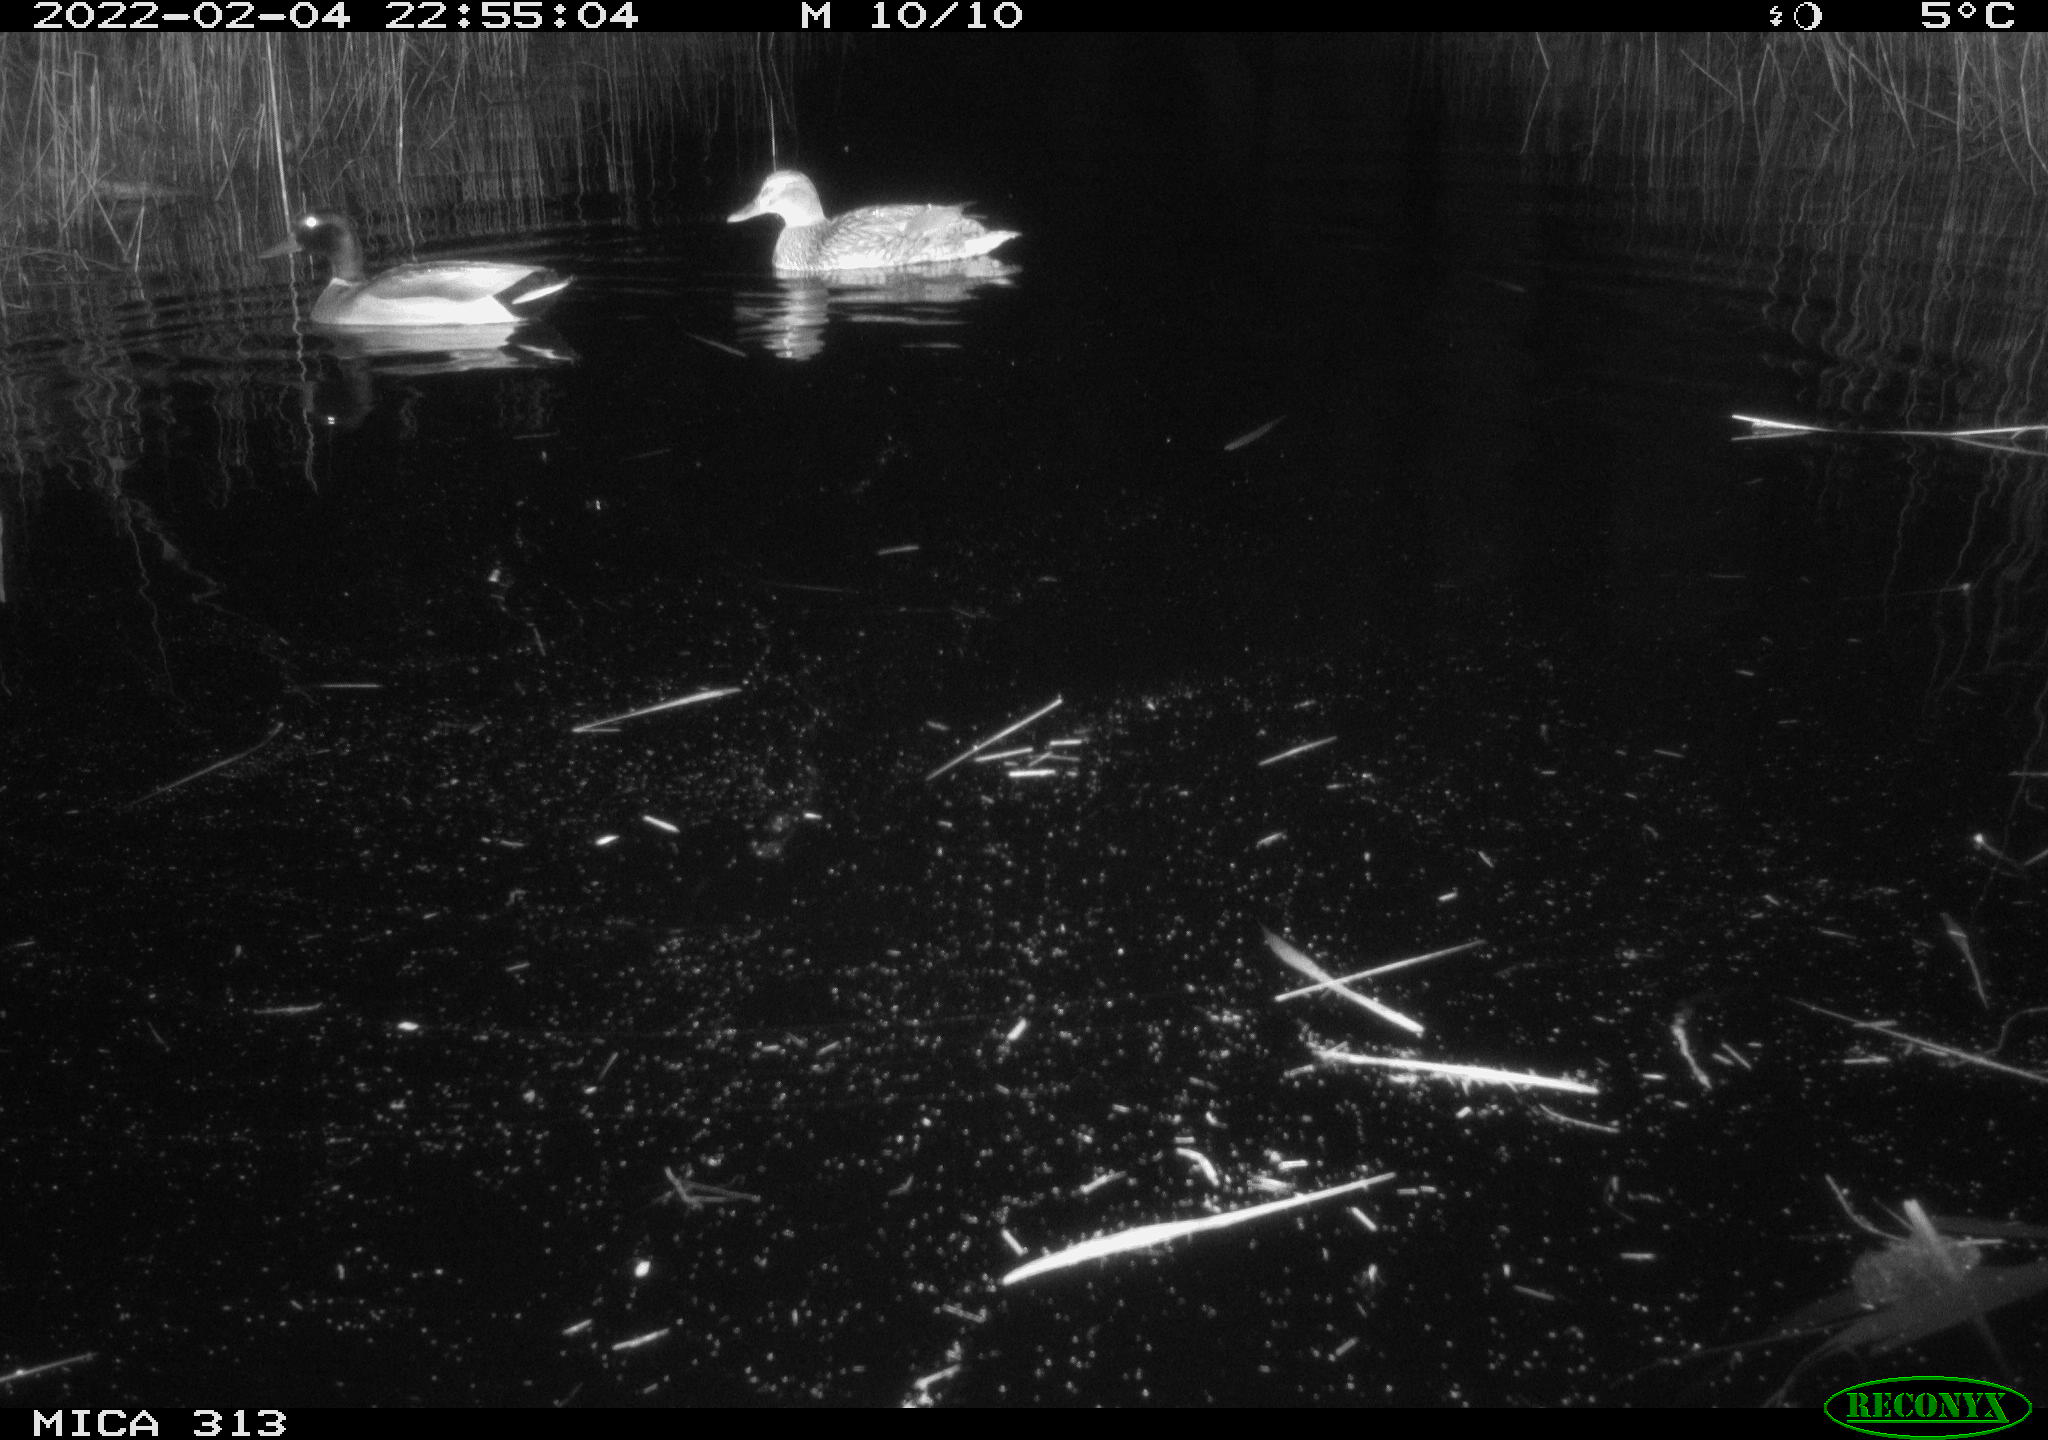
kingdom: Animalia
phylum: Chordata
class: Aves
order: Anseriformes
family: Anatidae
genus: Anas
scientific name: Anas platyrhynchos
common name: Mallard
